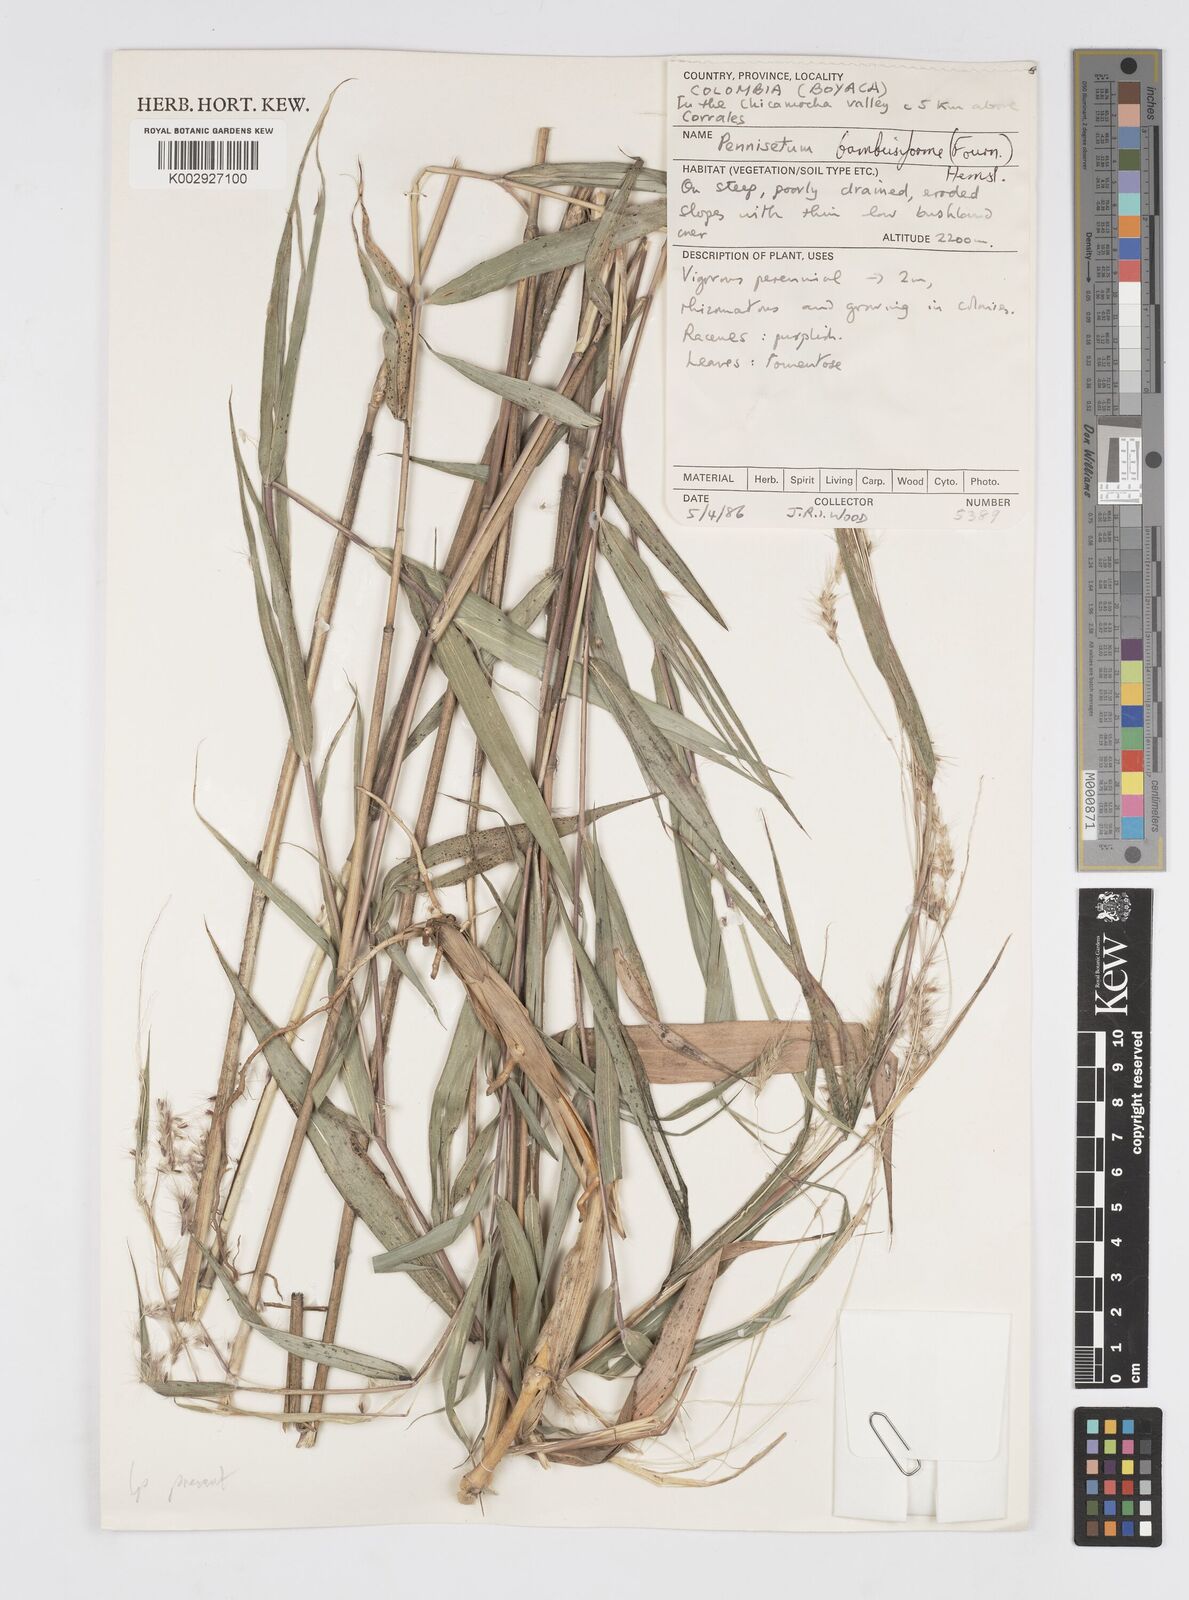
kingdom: Plantae
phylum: Tracheophyta
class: Liliopsida
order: Poales
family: Poaceae
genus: Cenchrus
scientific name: Cenchrus tristachyus
